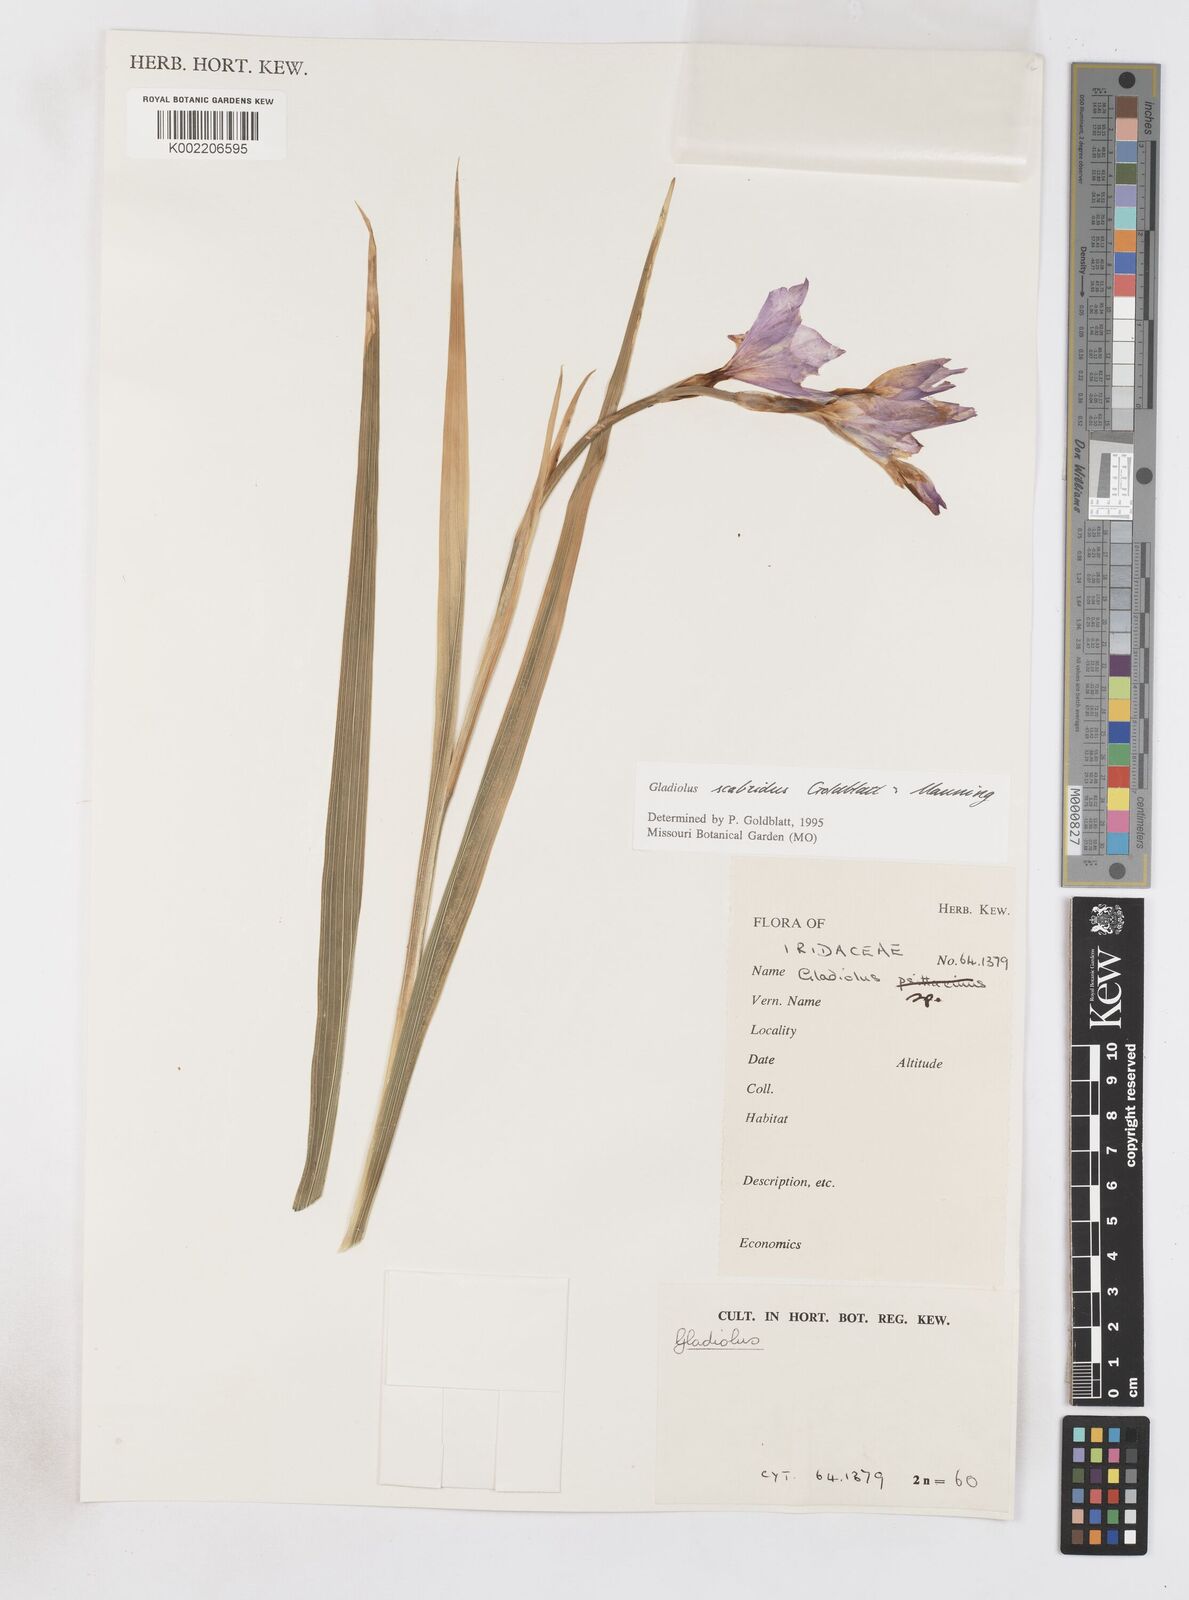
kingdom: Plantae
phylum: Tracheophyta
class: Liliopsida
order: Asparagales
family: Iridaceae
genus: Gladiolus
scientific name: Gladiolus scabridus
